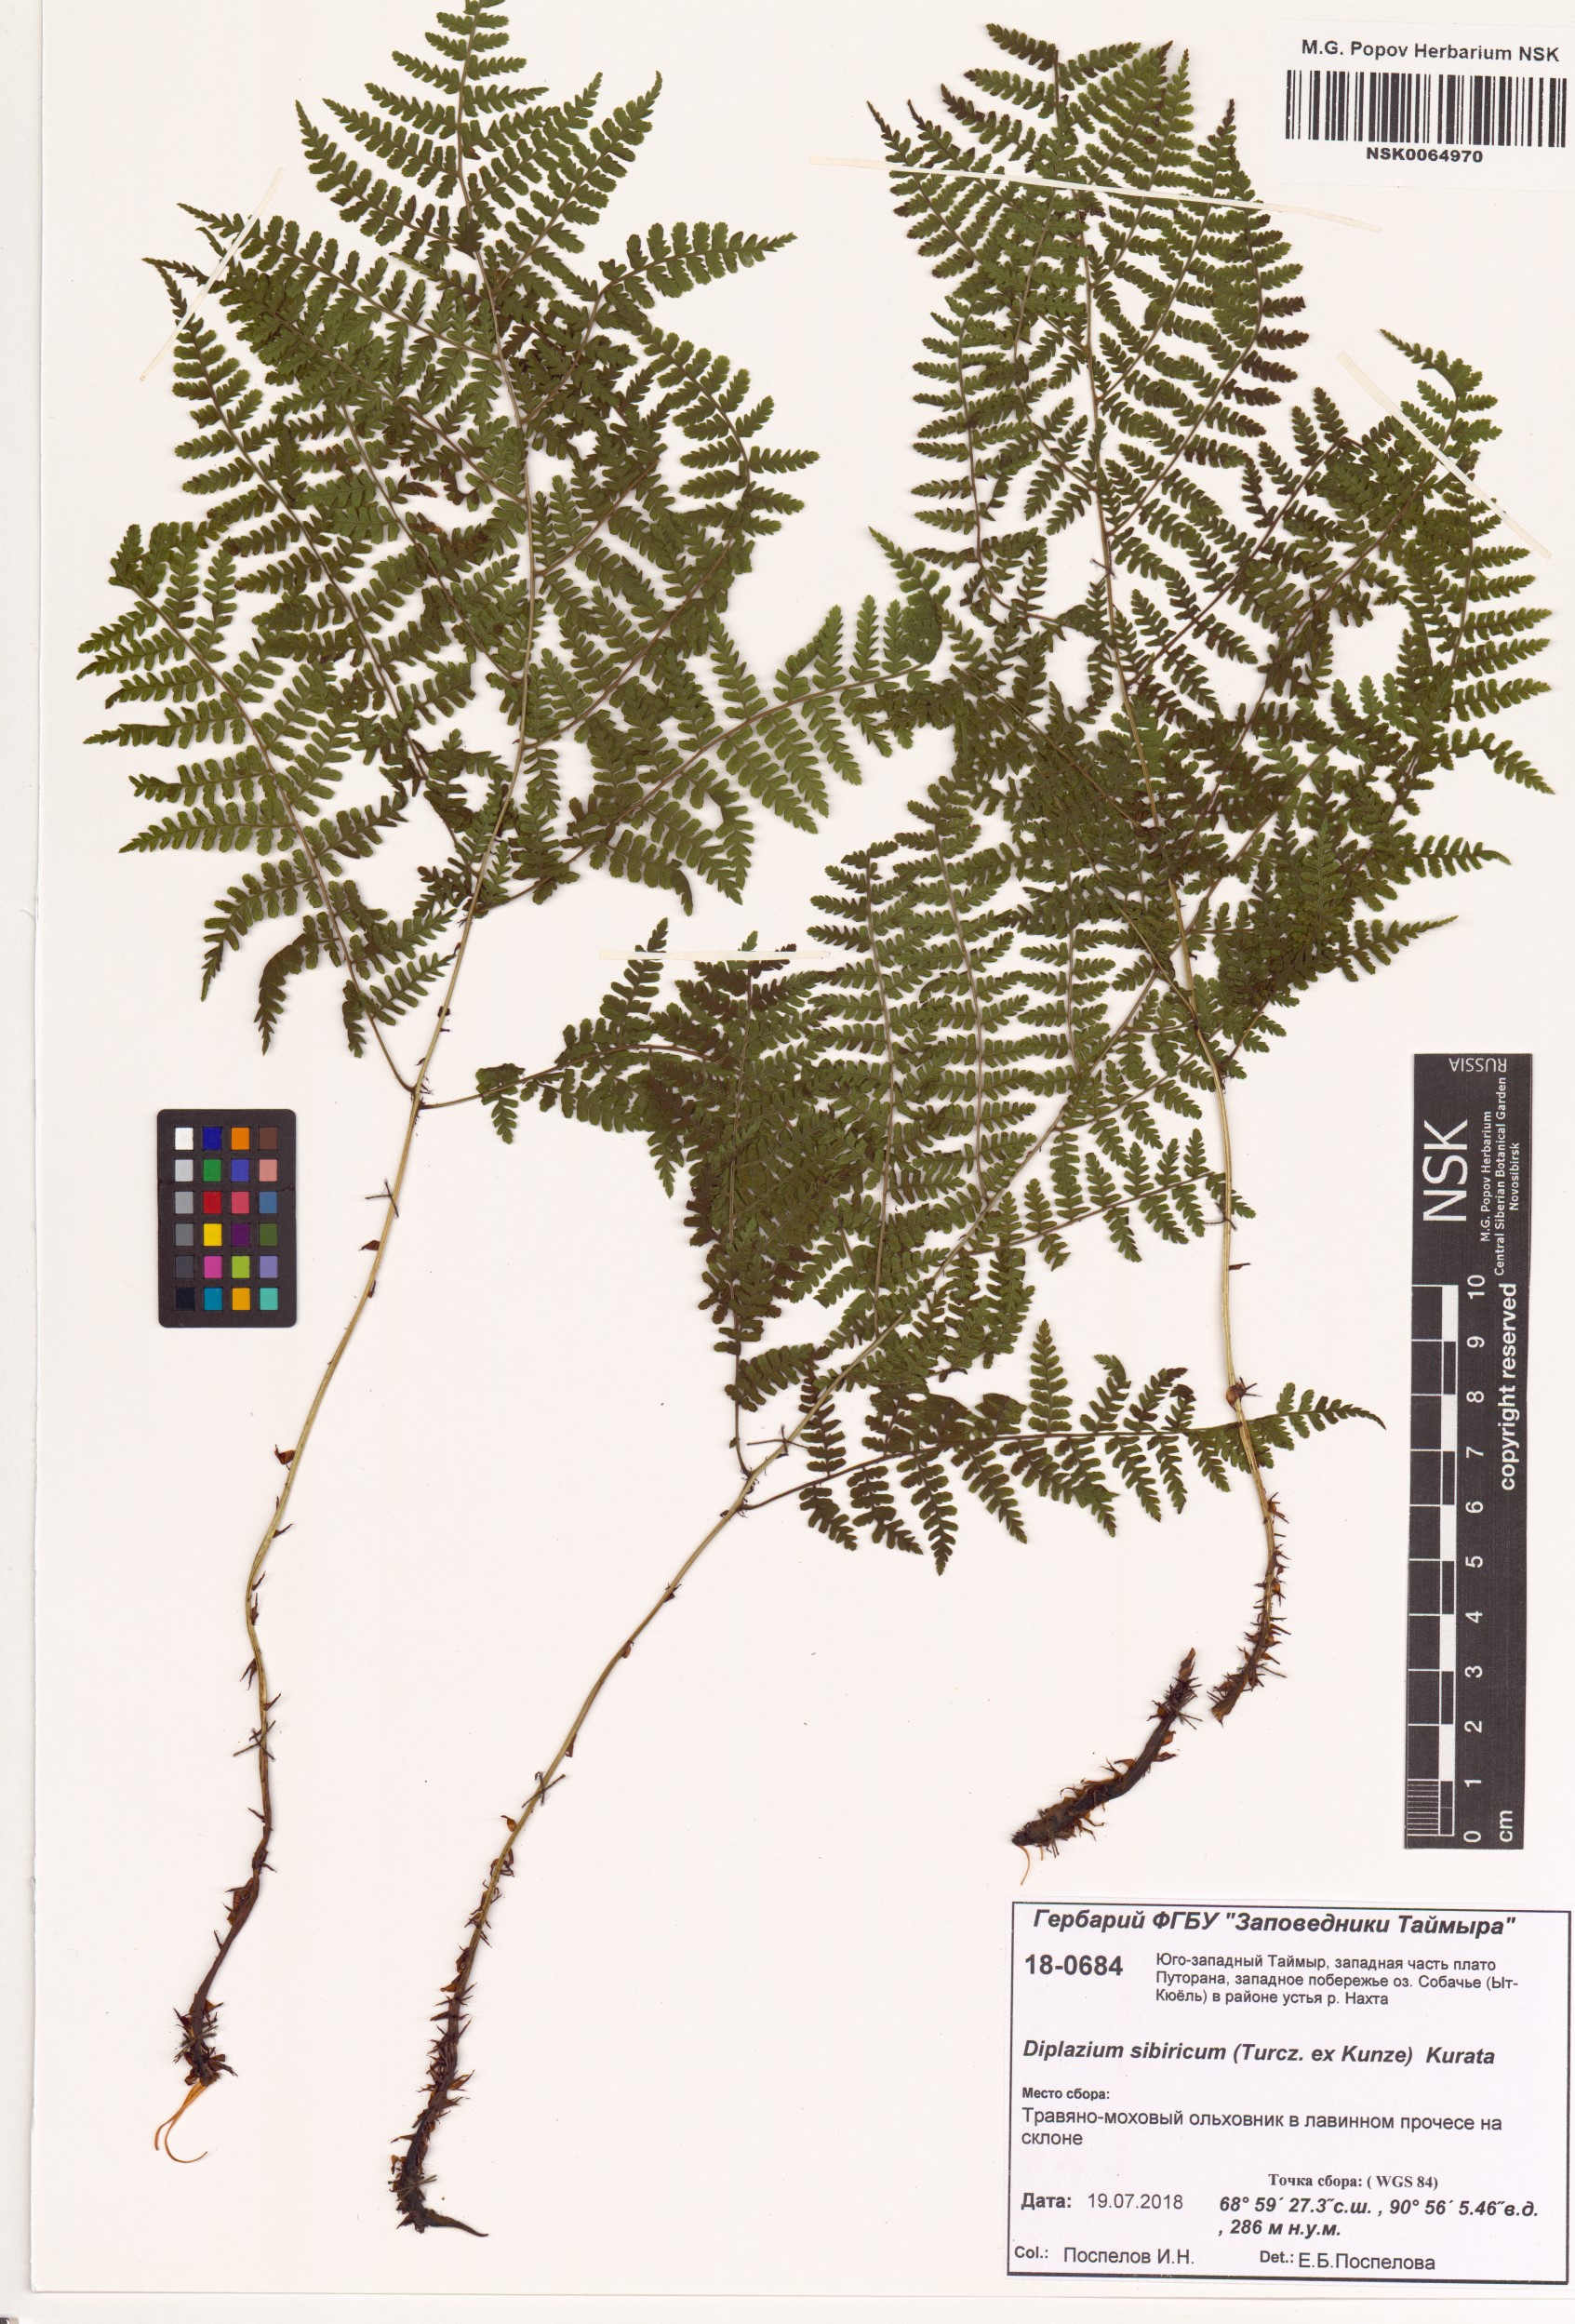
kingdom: Plantae
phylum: Tracheophyta
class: Polypodiopsida
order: Polypodiales
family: Athyriaceae
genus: Diplazium
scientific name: Diplazium sibiricum
